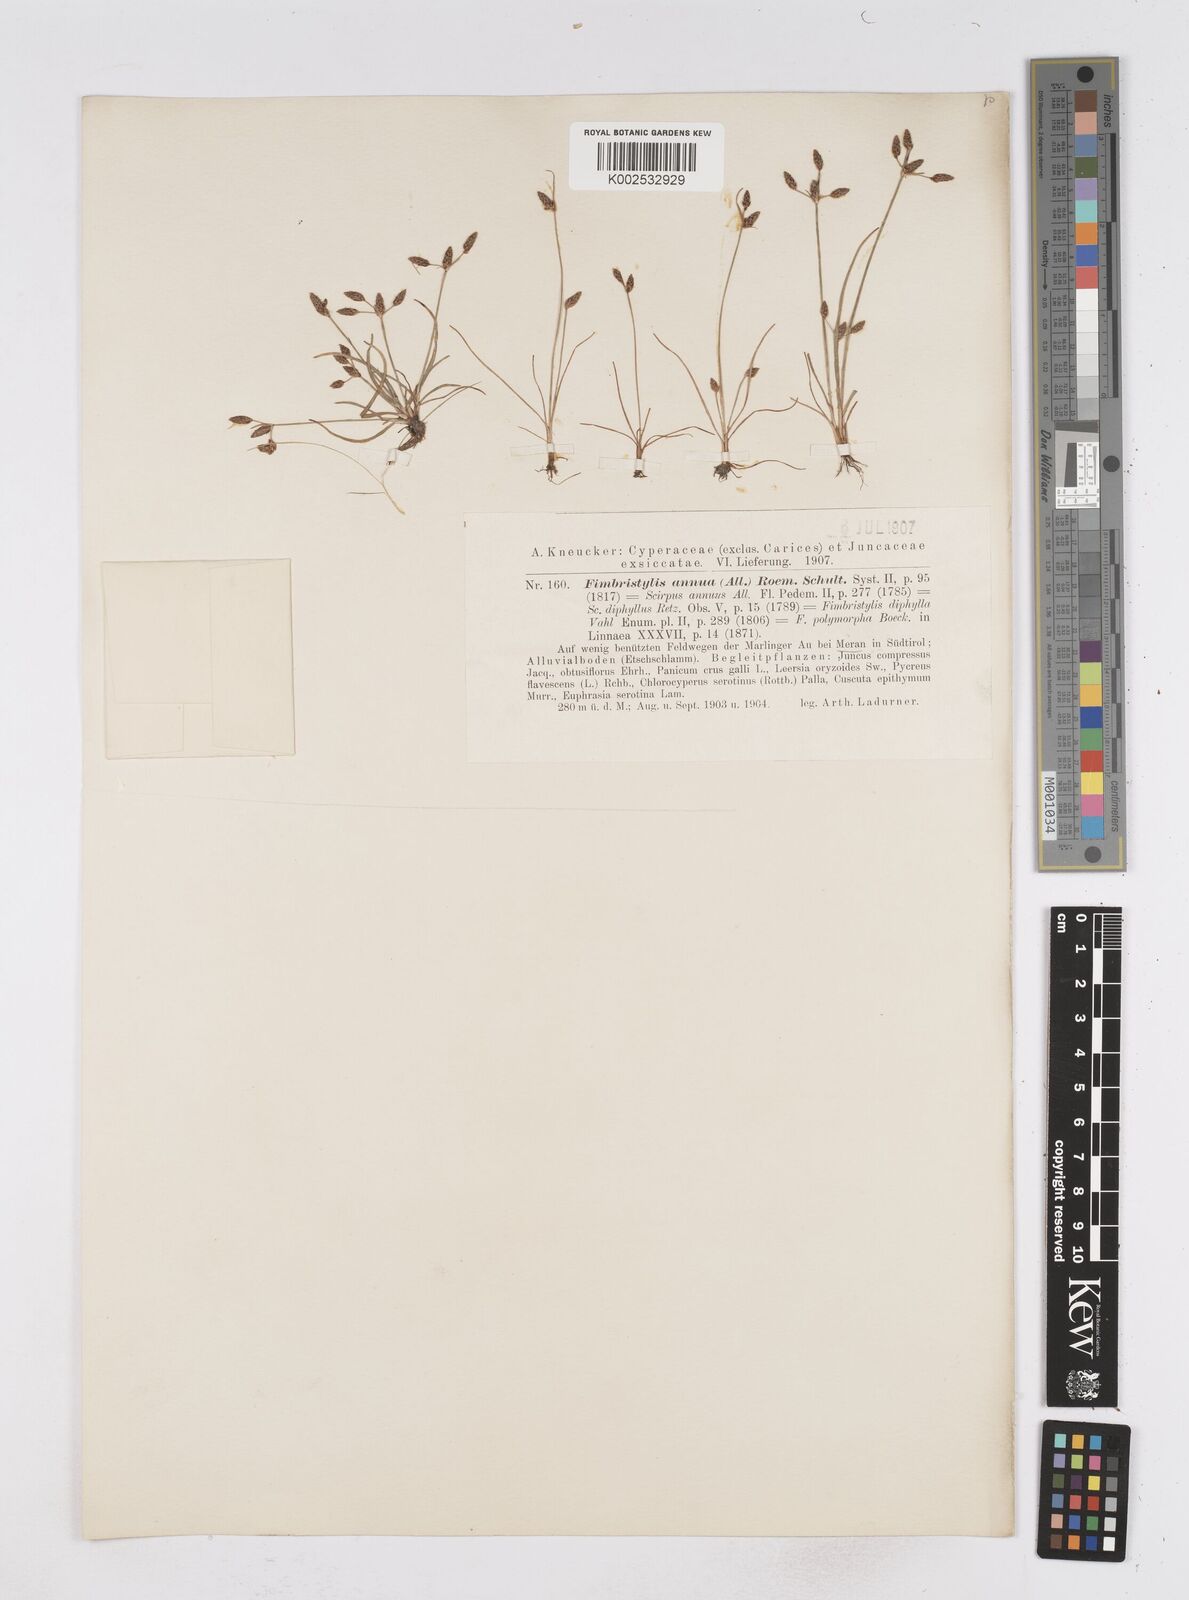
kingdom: Plantae
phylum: Tracheophyta
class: Liliopsida
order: Poales
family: Cyperaceae
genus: Fimbristylis
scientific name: Fimbristylis dichotoma
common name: Forked fimbry
